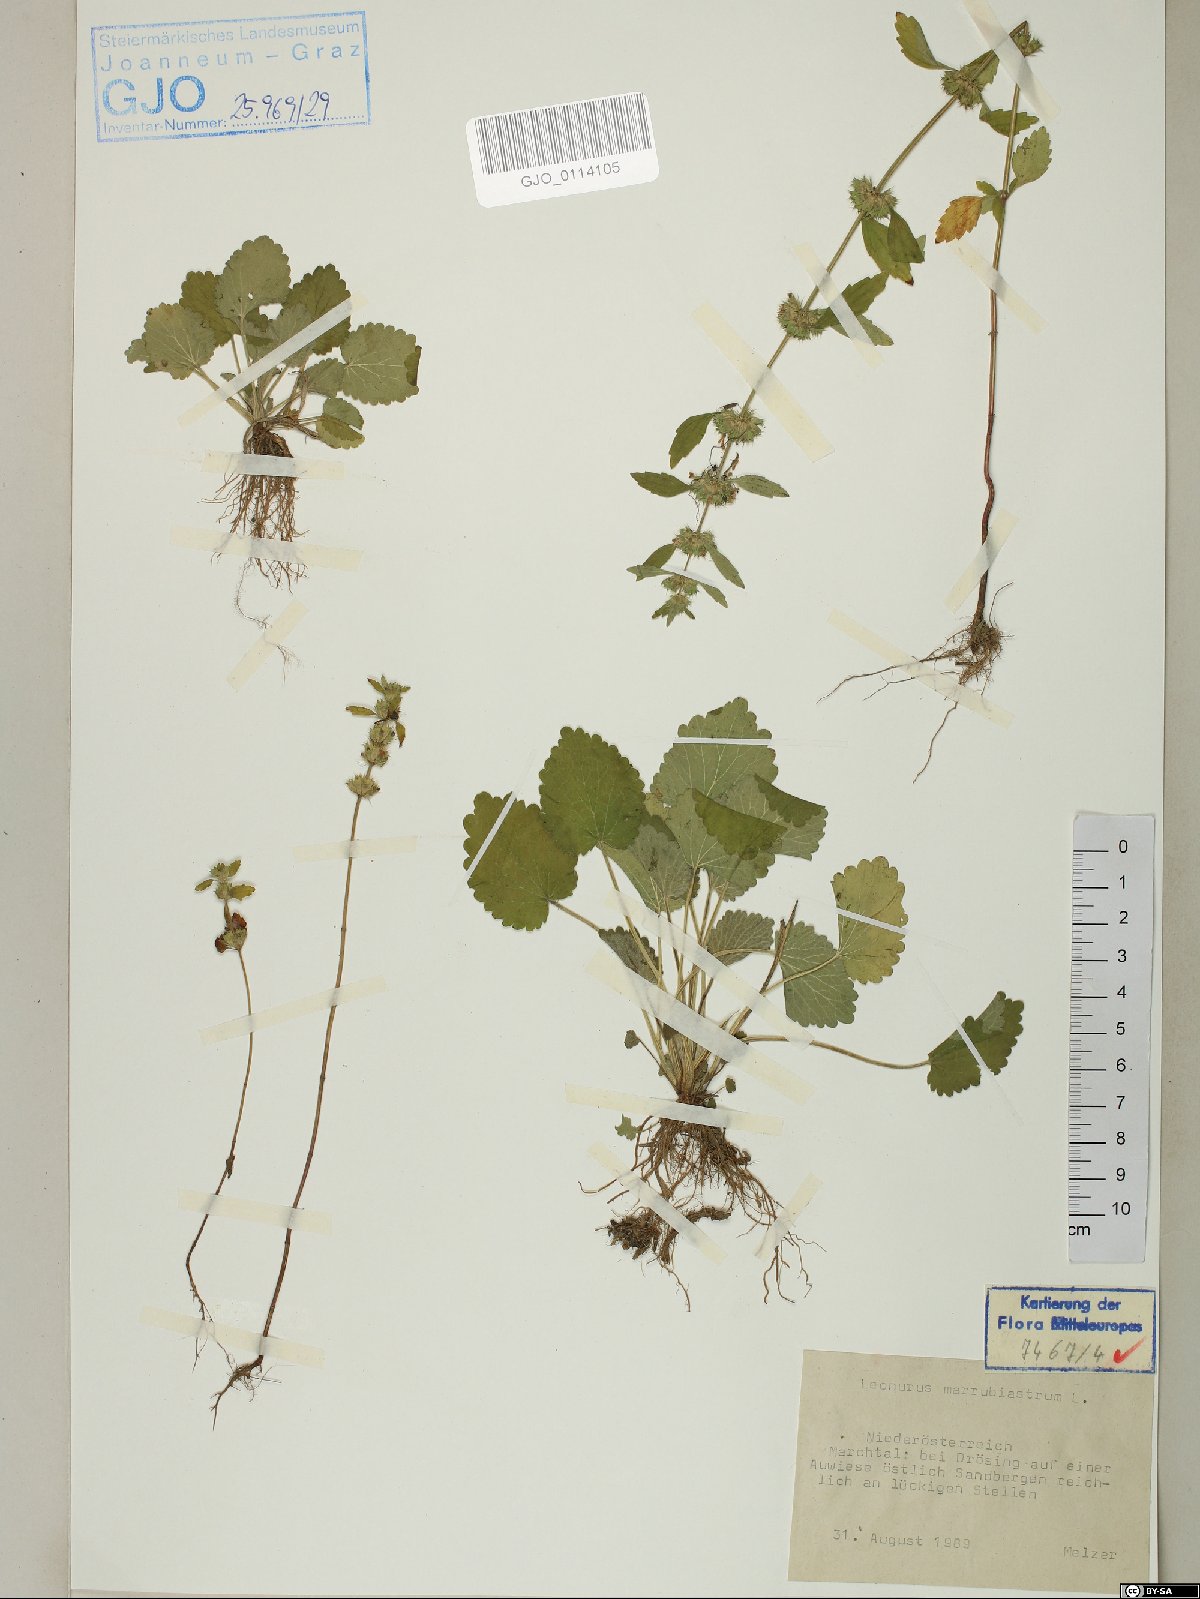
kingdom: Plantae
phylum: Tracheophyta
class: Magnoliopsida
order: Lamiales
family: Lamiaceae
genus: Chaiturus
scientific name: Chaiturus marrubiastrum
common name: Lion's tail
